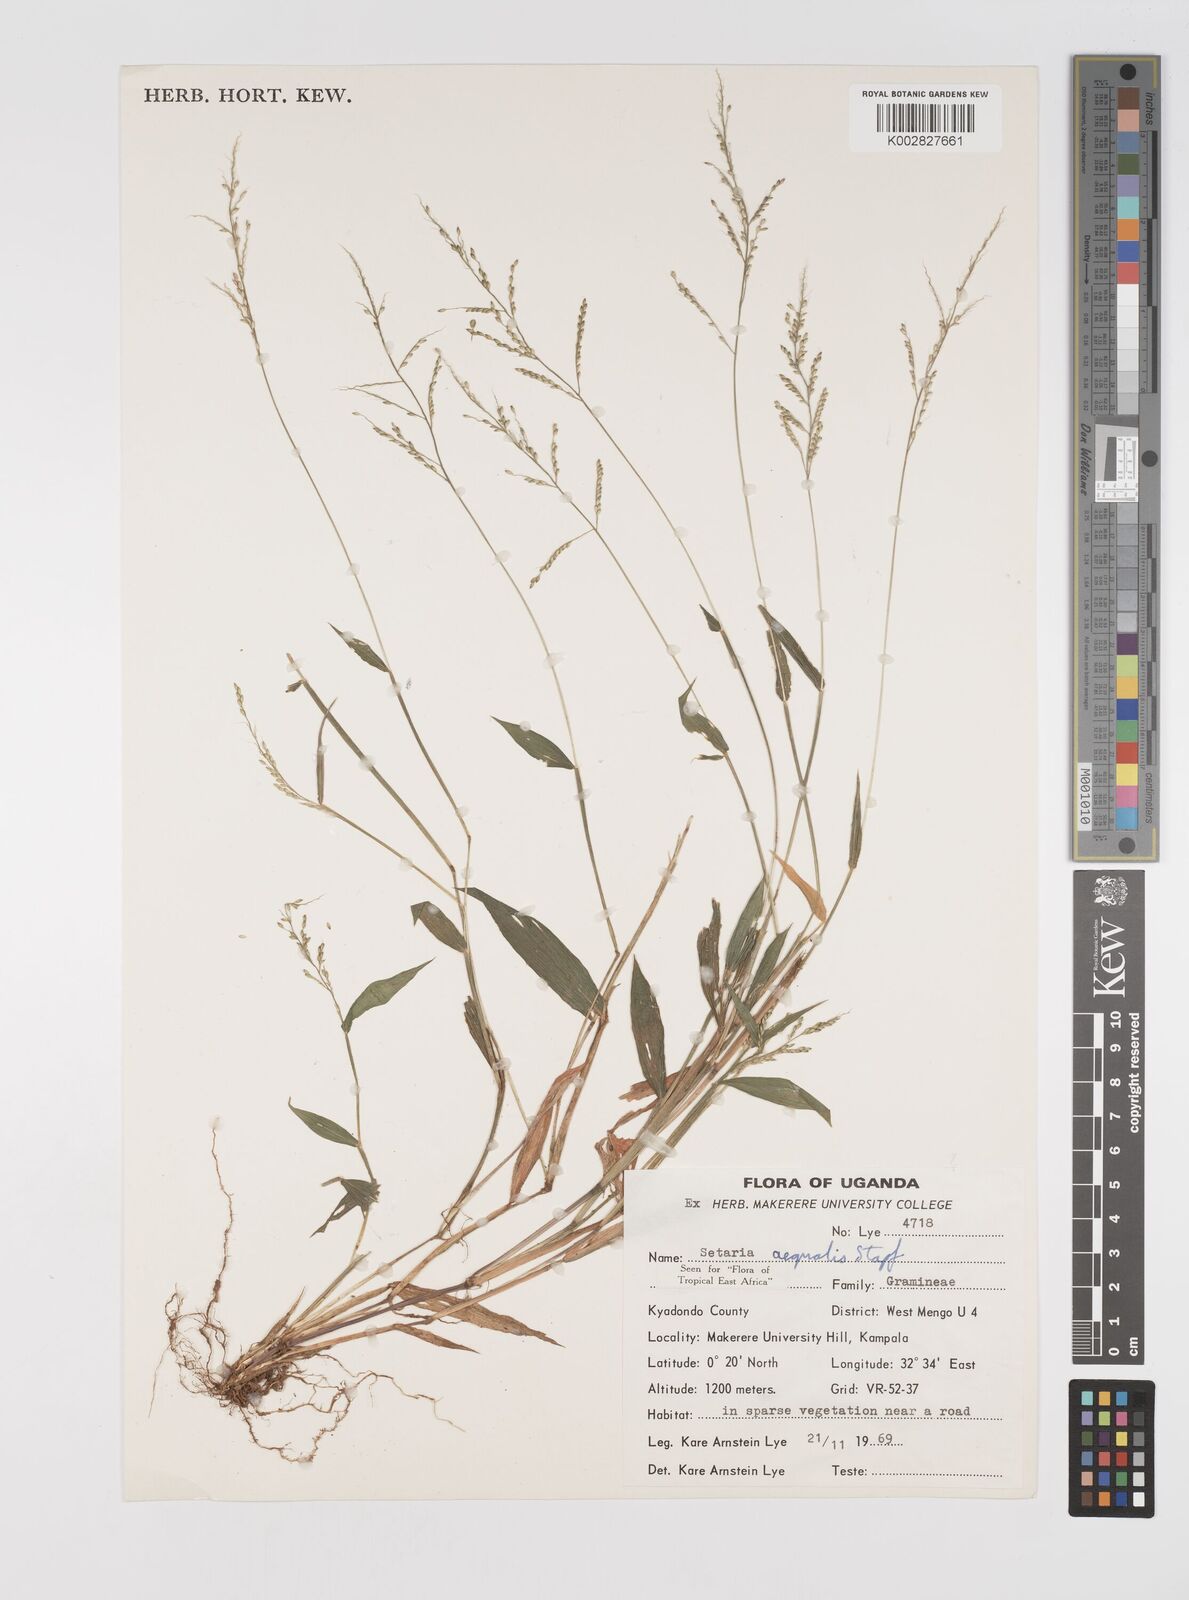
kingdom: Plantae
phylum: Tracheophyta
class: Liliopsida
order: Poales
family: Poaceae
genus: Setaria
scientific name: Setaria homonyma
